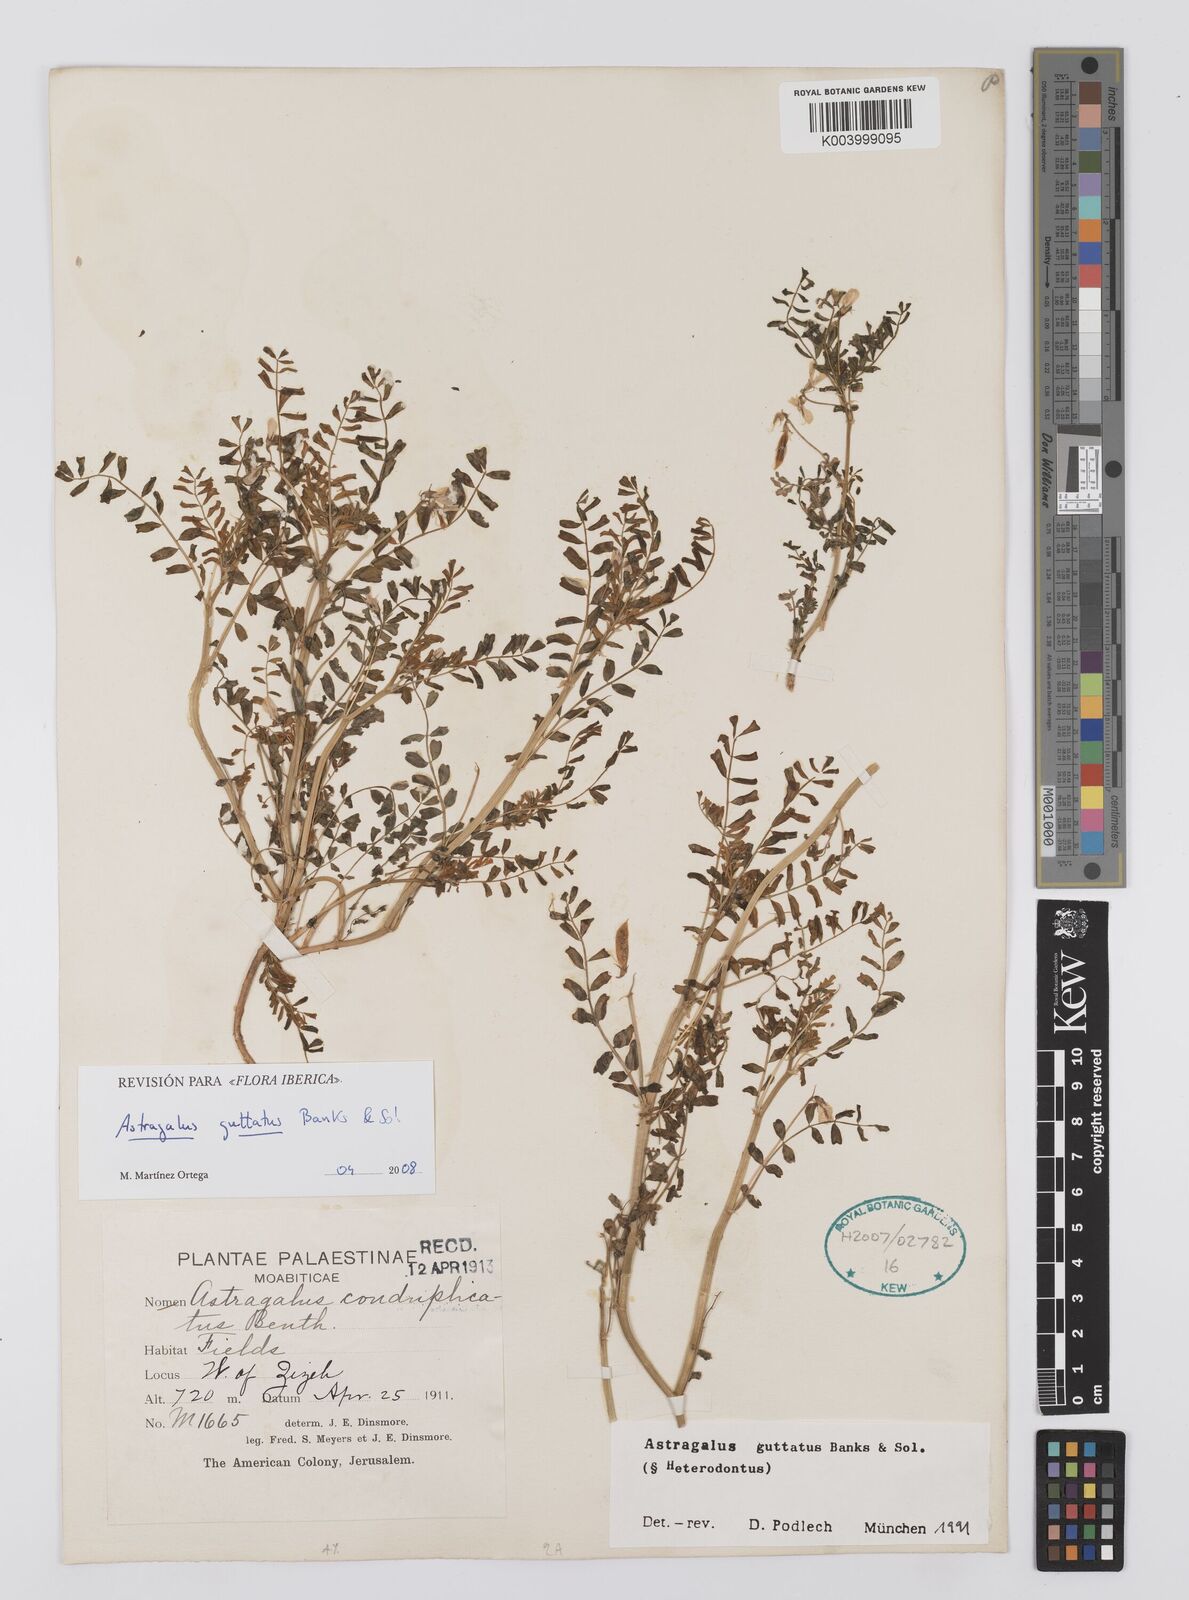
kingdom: Plantae
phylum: Tracheophyta
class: Magnoliopsida
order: Fabales
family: Fabaceae
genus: Astragalus
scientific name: Astragalus guttatus
